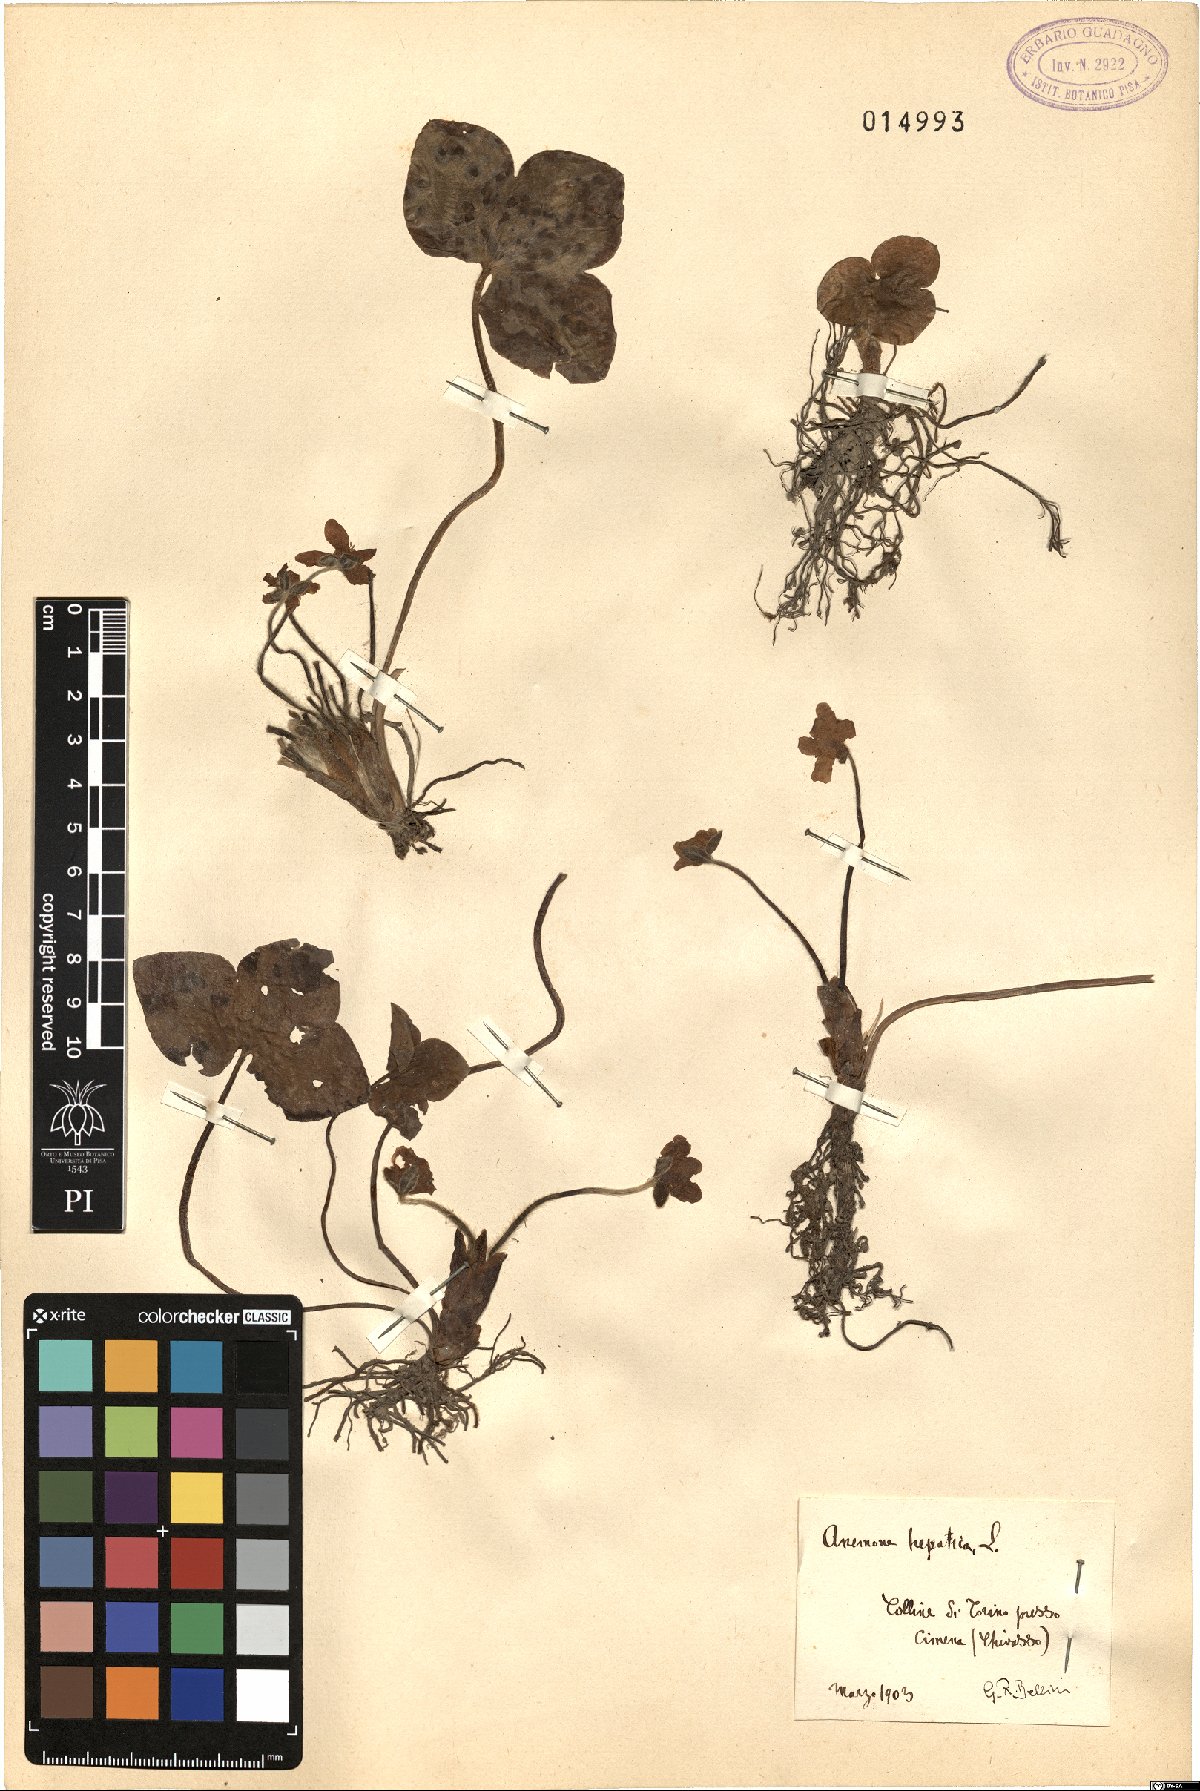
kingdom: Plantae
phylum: Tracheophyta
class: Magnoliopsida
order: Ranunculales
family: Ranunculaceae
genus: Hepatica
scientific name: Hepatica nobilis
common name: Liverleaf
